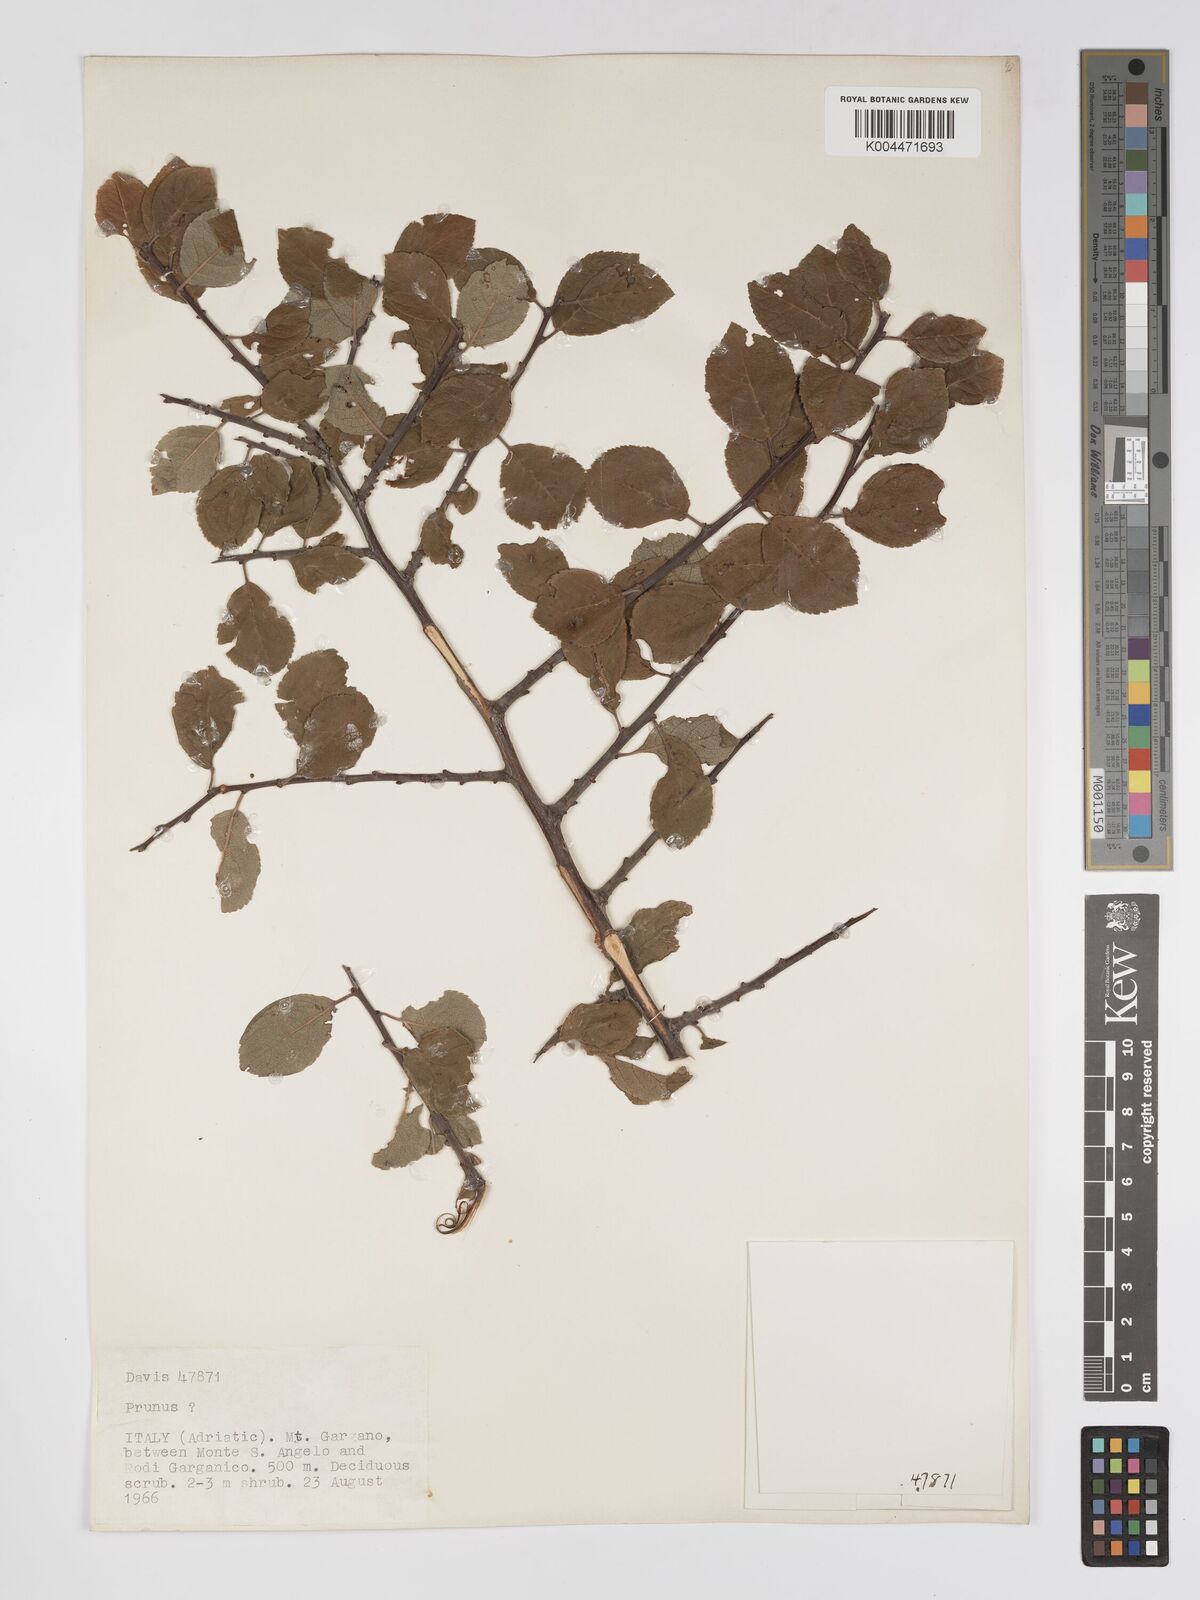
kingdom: Plantae
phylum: Tracheophyta
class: Magnoliopsida
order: Rosales
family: Rosaceae
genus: Prunus
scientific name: Prunus
